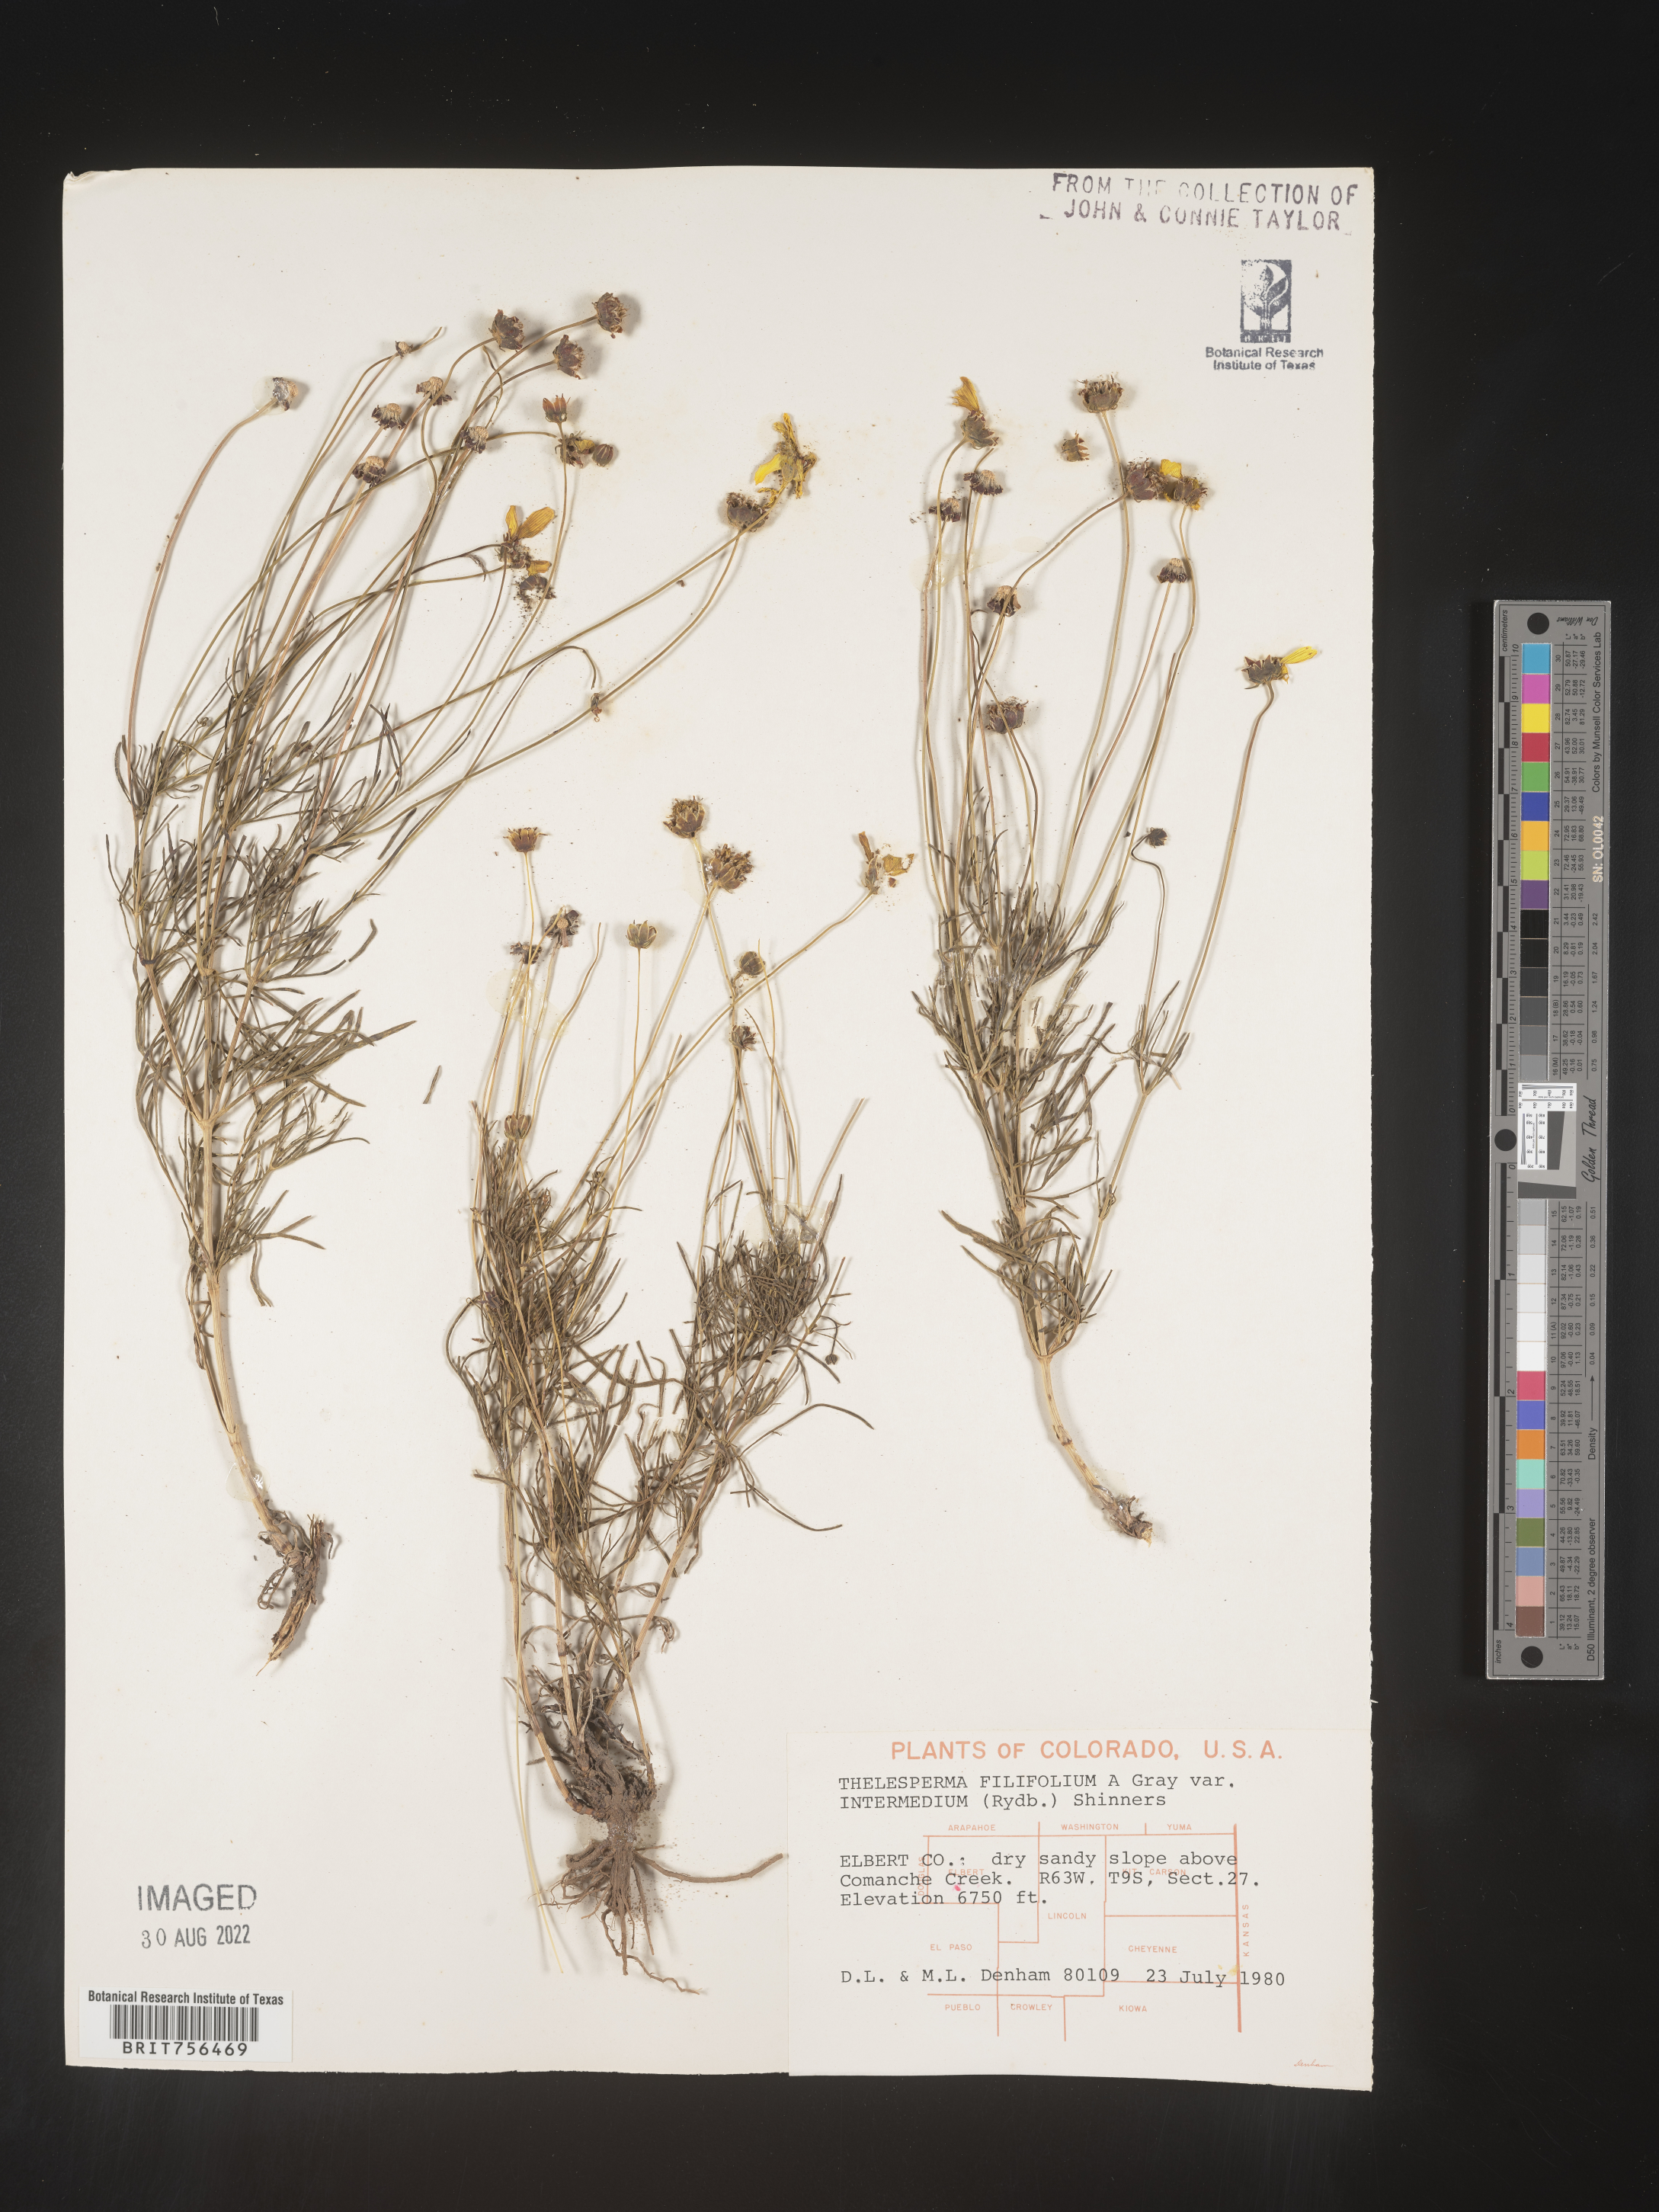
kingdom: Plantae
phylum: Tracheophyta
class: Magnoliopsida
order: Asterales
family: Asteraceae
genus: Thelesperma
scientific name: Thelesperma filifolium
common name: Stiff greenthread
